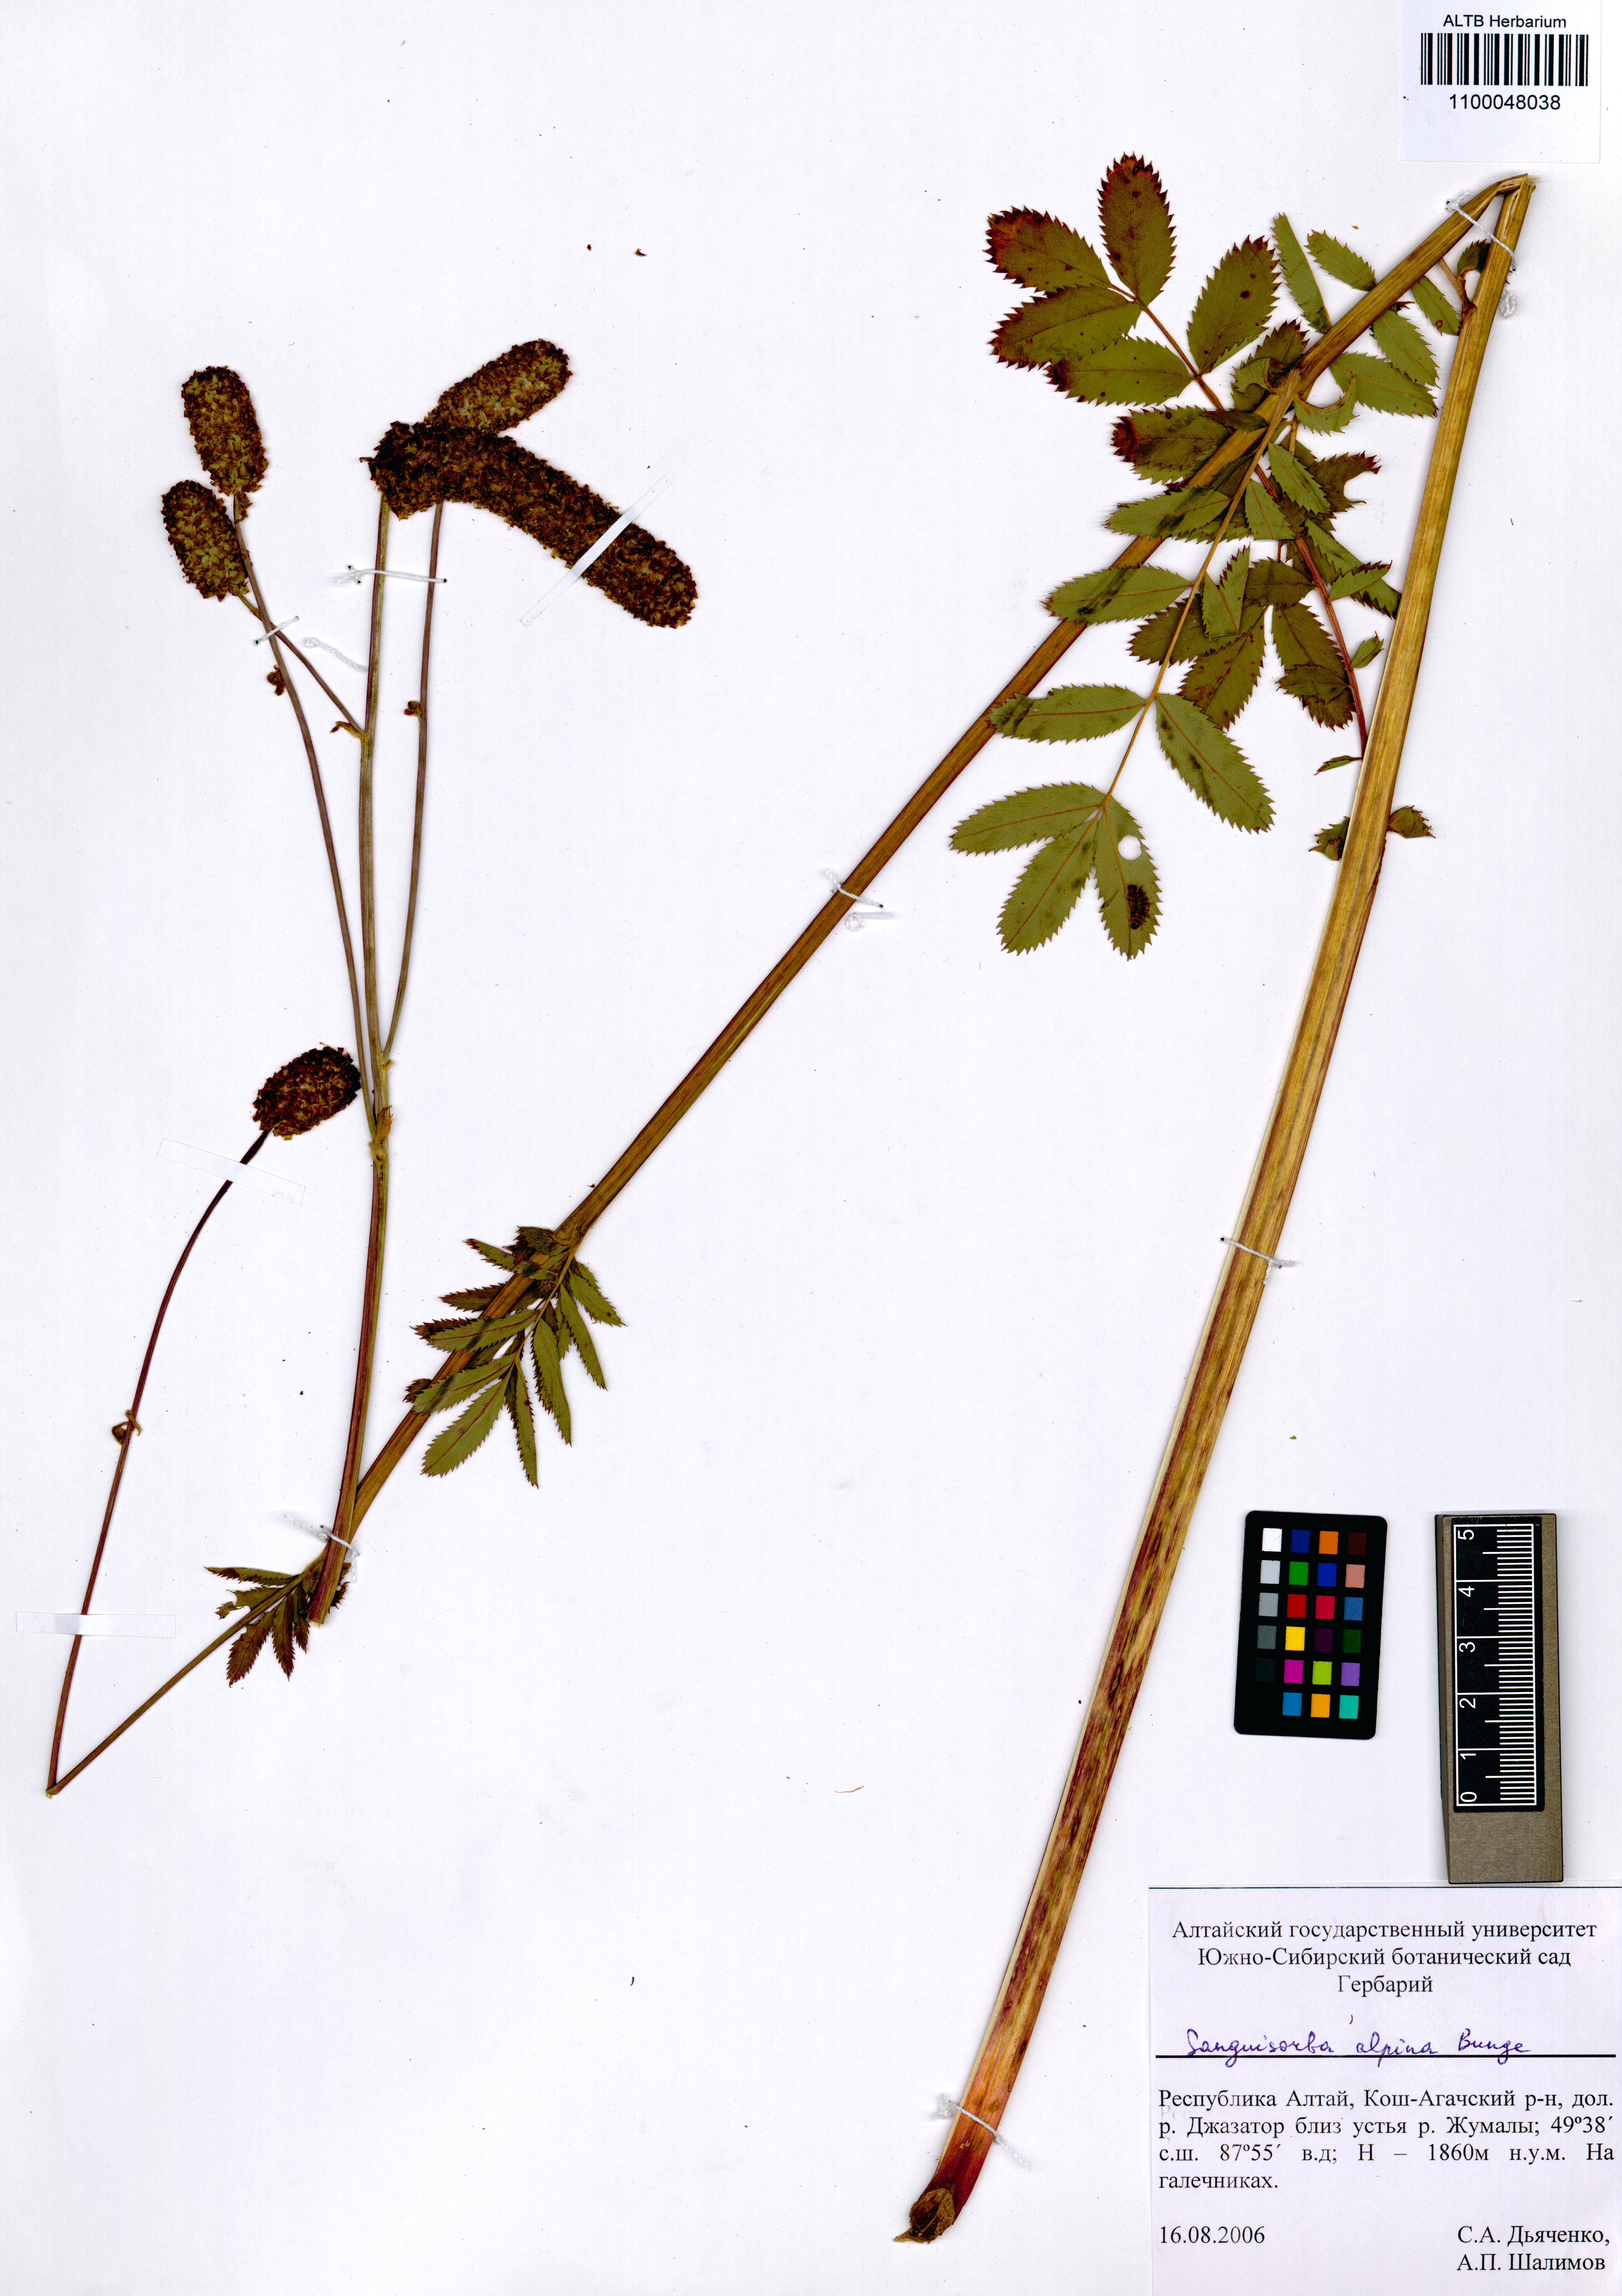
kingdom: Plantae
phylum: Tracheophyta
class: Magnoliopsida
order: Rosales
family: Rosaceae
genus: Sanguisorba
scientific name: Sanguisorba alpina
